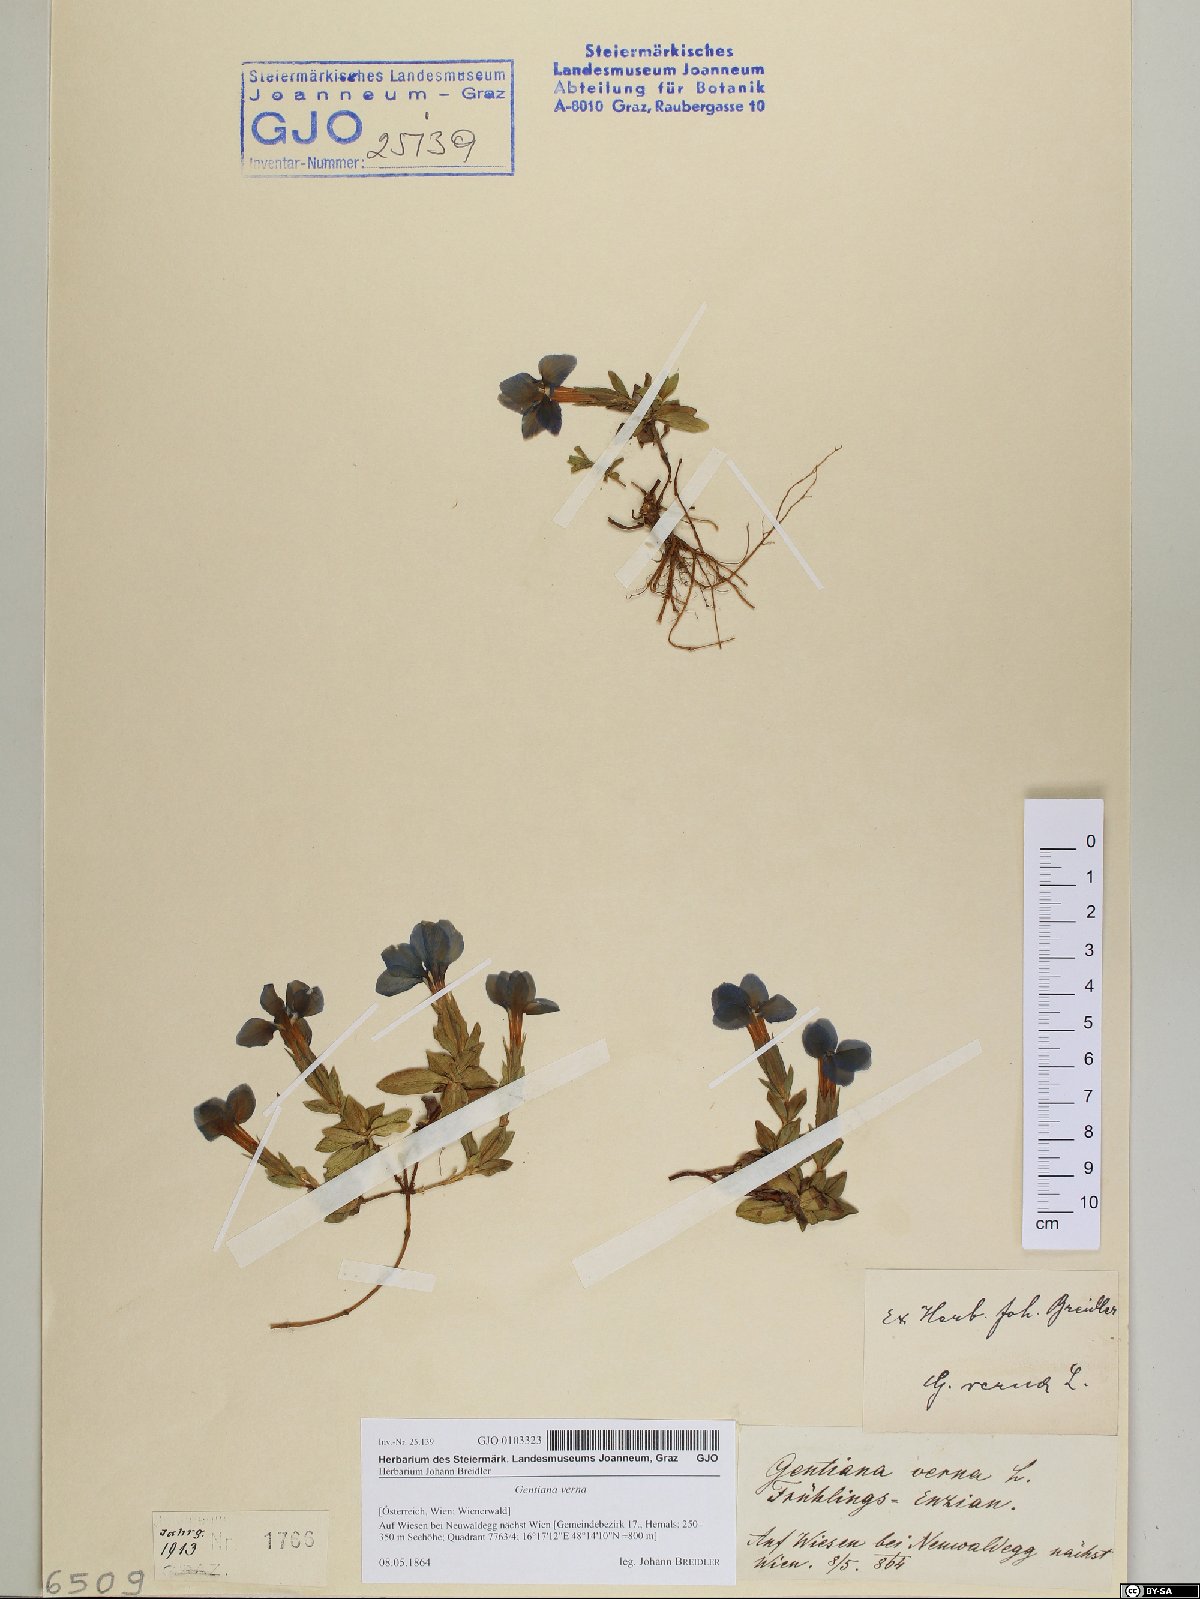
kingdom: Plantae
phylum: Tracheophyta
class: Magnoliopsida
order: Gentianales
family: Gentianaceae
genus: Gentiana
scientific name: Gentiana verna
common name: Spring gentian
